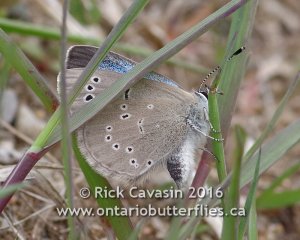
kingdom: Animalia
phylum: Arthropoda
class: Insecta
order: Lepidoptera
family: Lycaenidae
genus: Glaucopsyche
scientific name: Glaucopsyche lygdamus
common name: Silvery Blue
